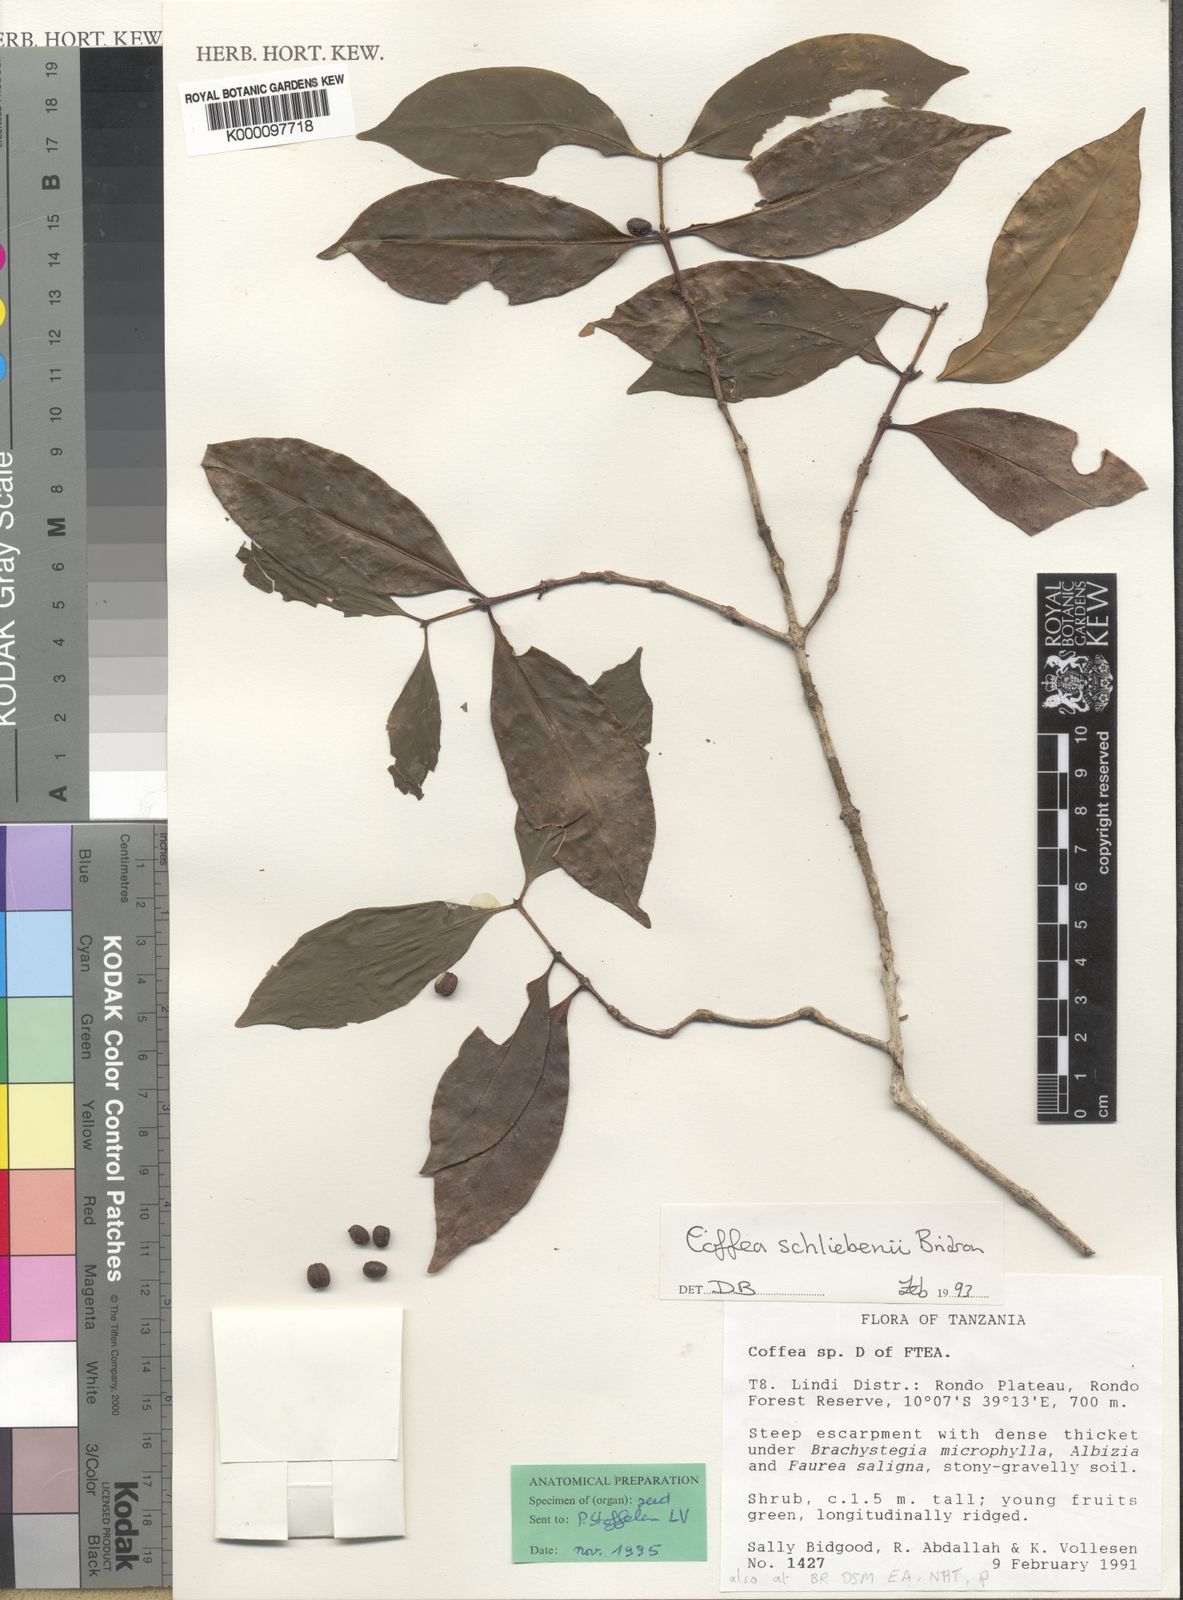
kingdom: Plantae
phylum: Tracheophyta
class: Magnoliopsida
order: Gentianales
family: Rubiaceae
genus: Coffea
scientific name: Coffea schliebenii
